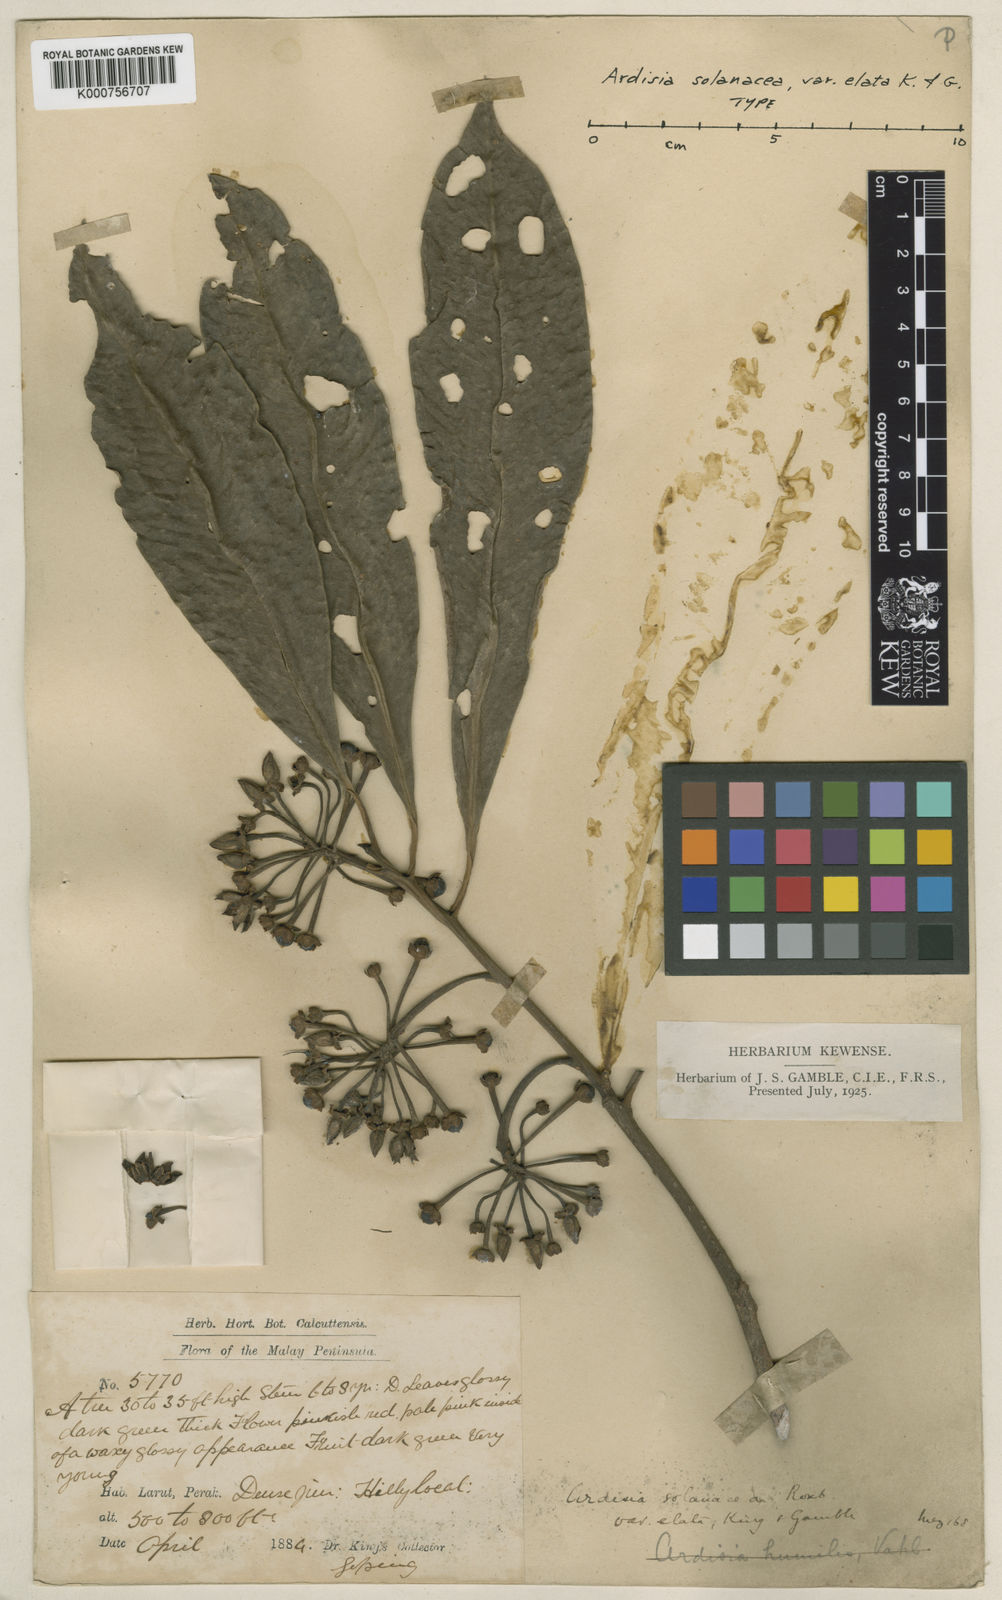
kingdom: Plantae
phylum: Tracheophyta
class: Magnoliopsida
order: Ericales
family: Primulaceae
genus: Ardisia
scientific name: Ardisia humilis
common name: Low shoebutton
